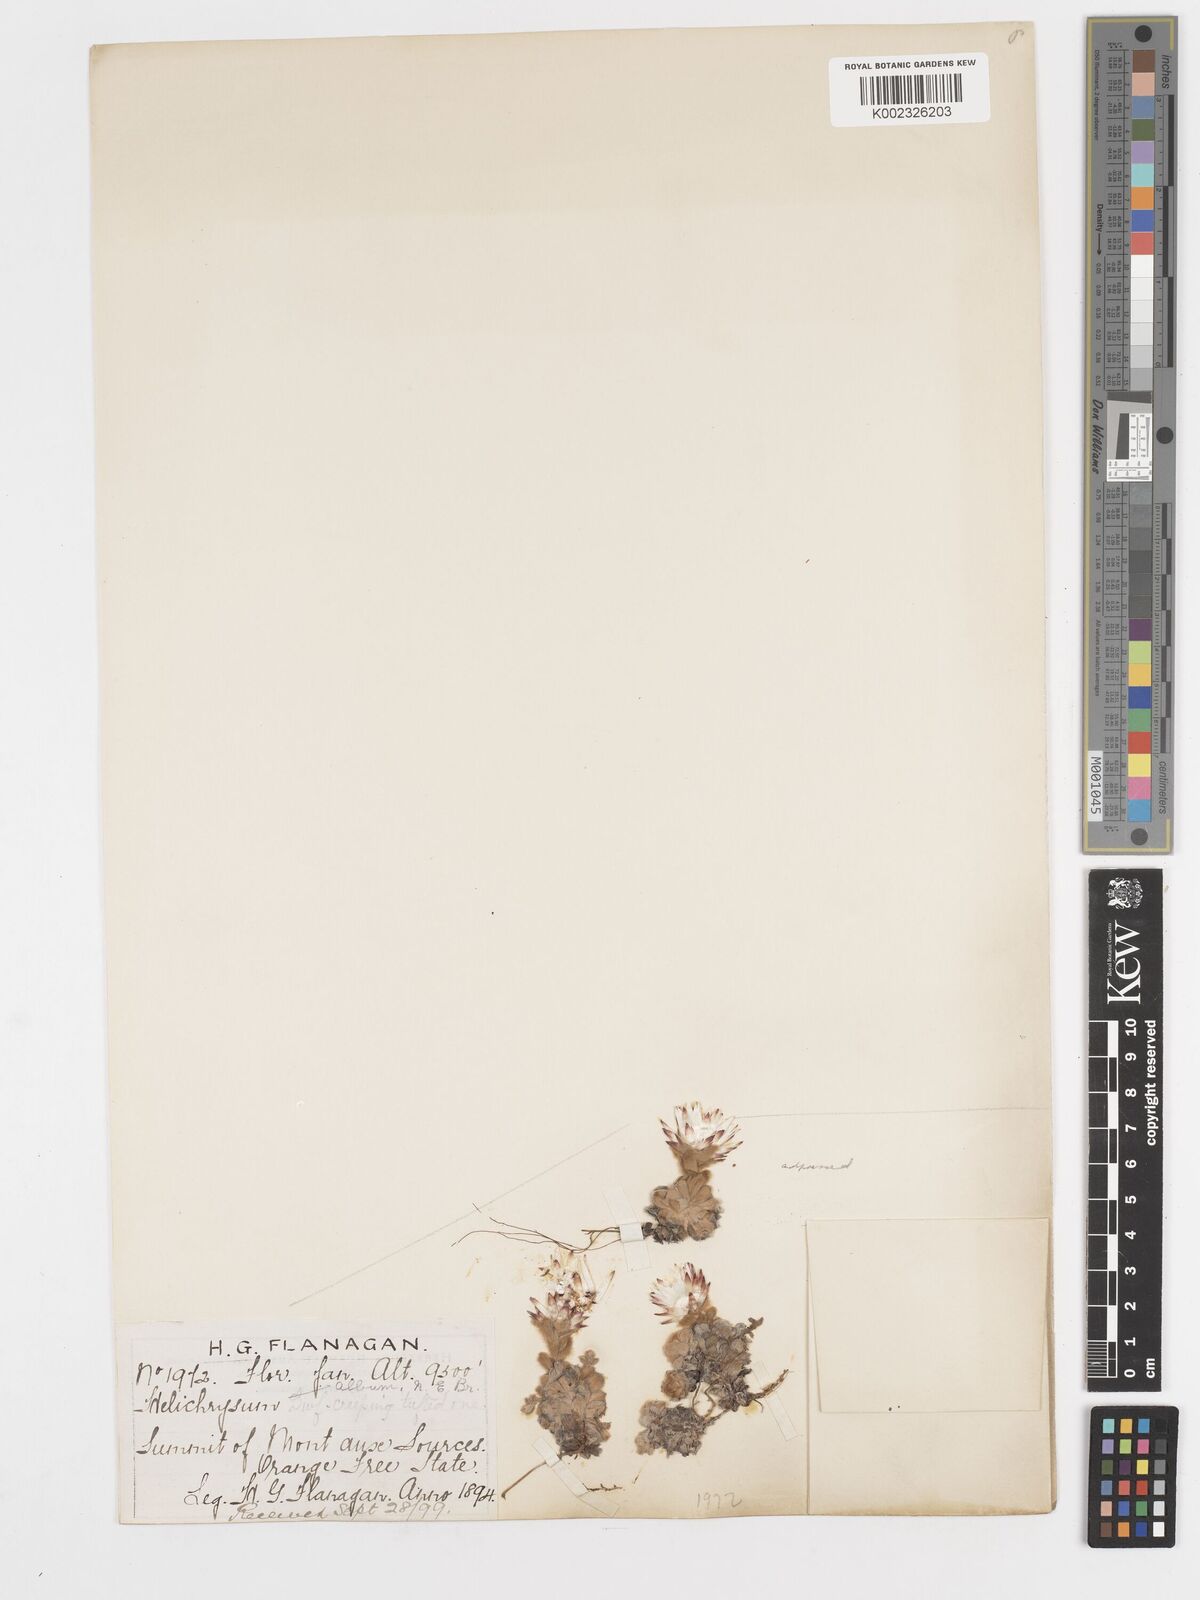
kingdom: Plantae
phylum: Tracheophyta
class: Magnoliopsida
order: Asterales
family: Asteraceae
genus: Helichrysum
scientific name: Helichrysum milfordiae
